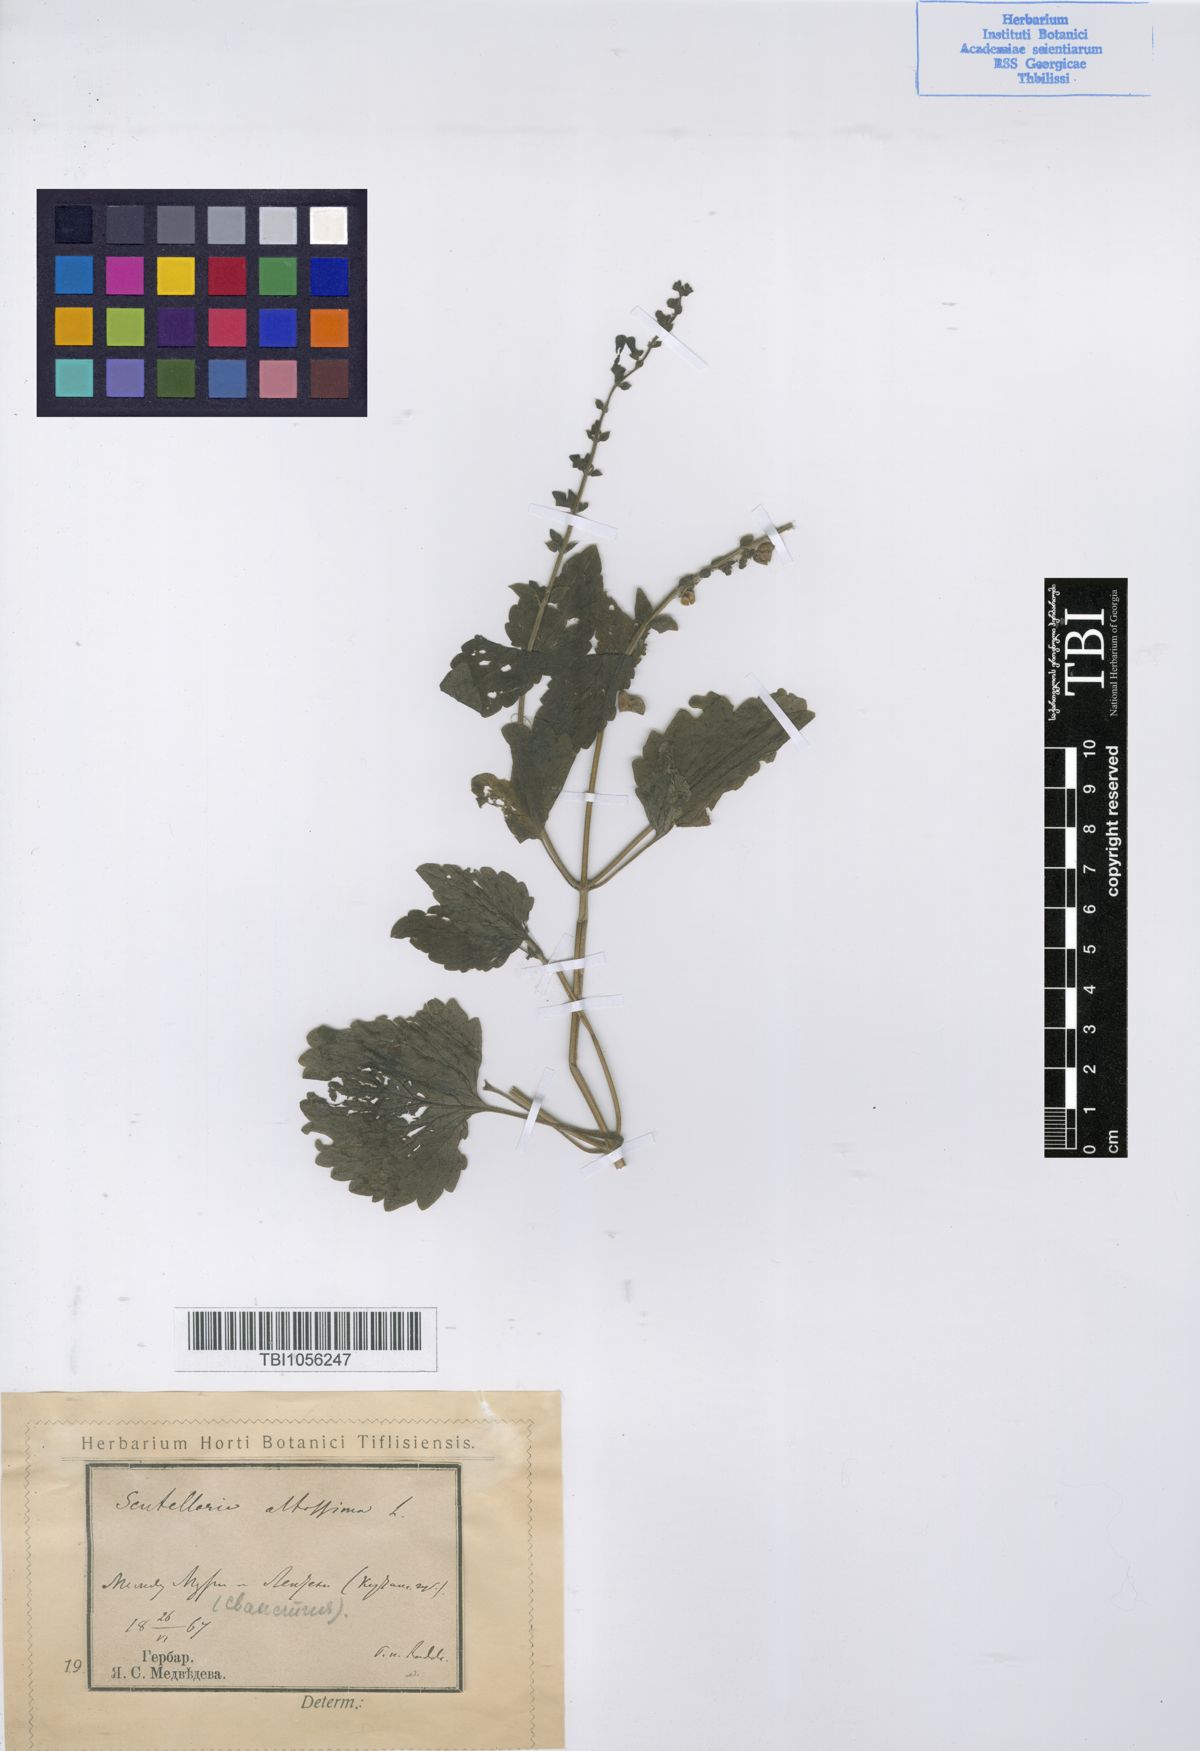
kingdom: Plantae
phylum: Tracheophyta
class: Magnoliopsida
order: Lamiales
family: Lamiaceae
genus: Scutellaria
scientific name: Scutellaria altissima
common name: Somerset skullcap
